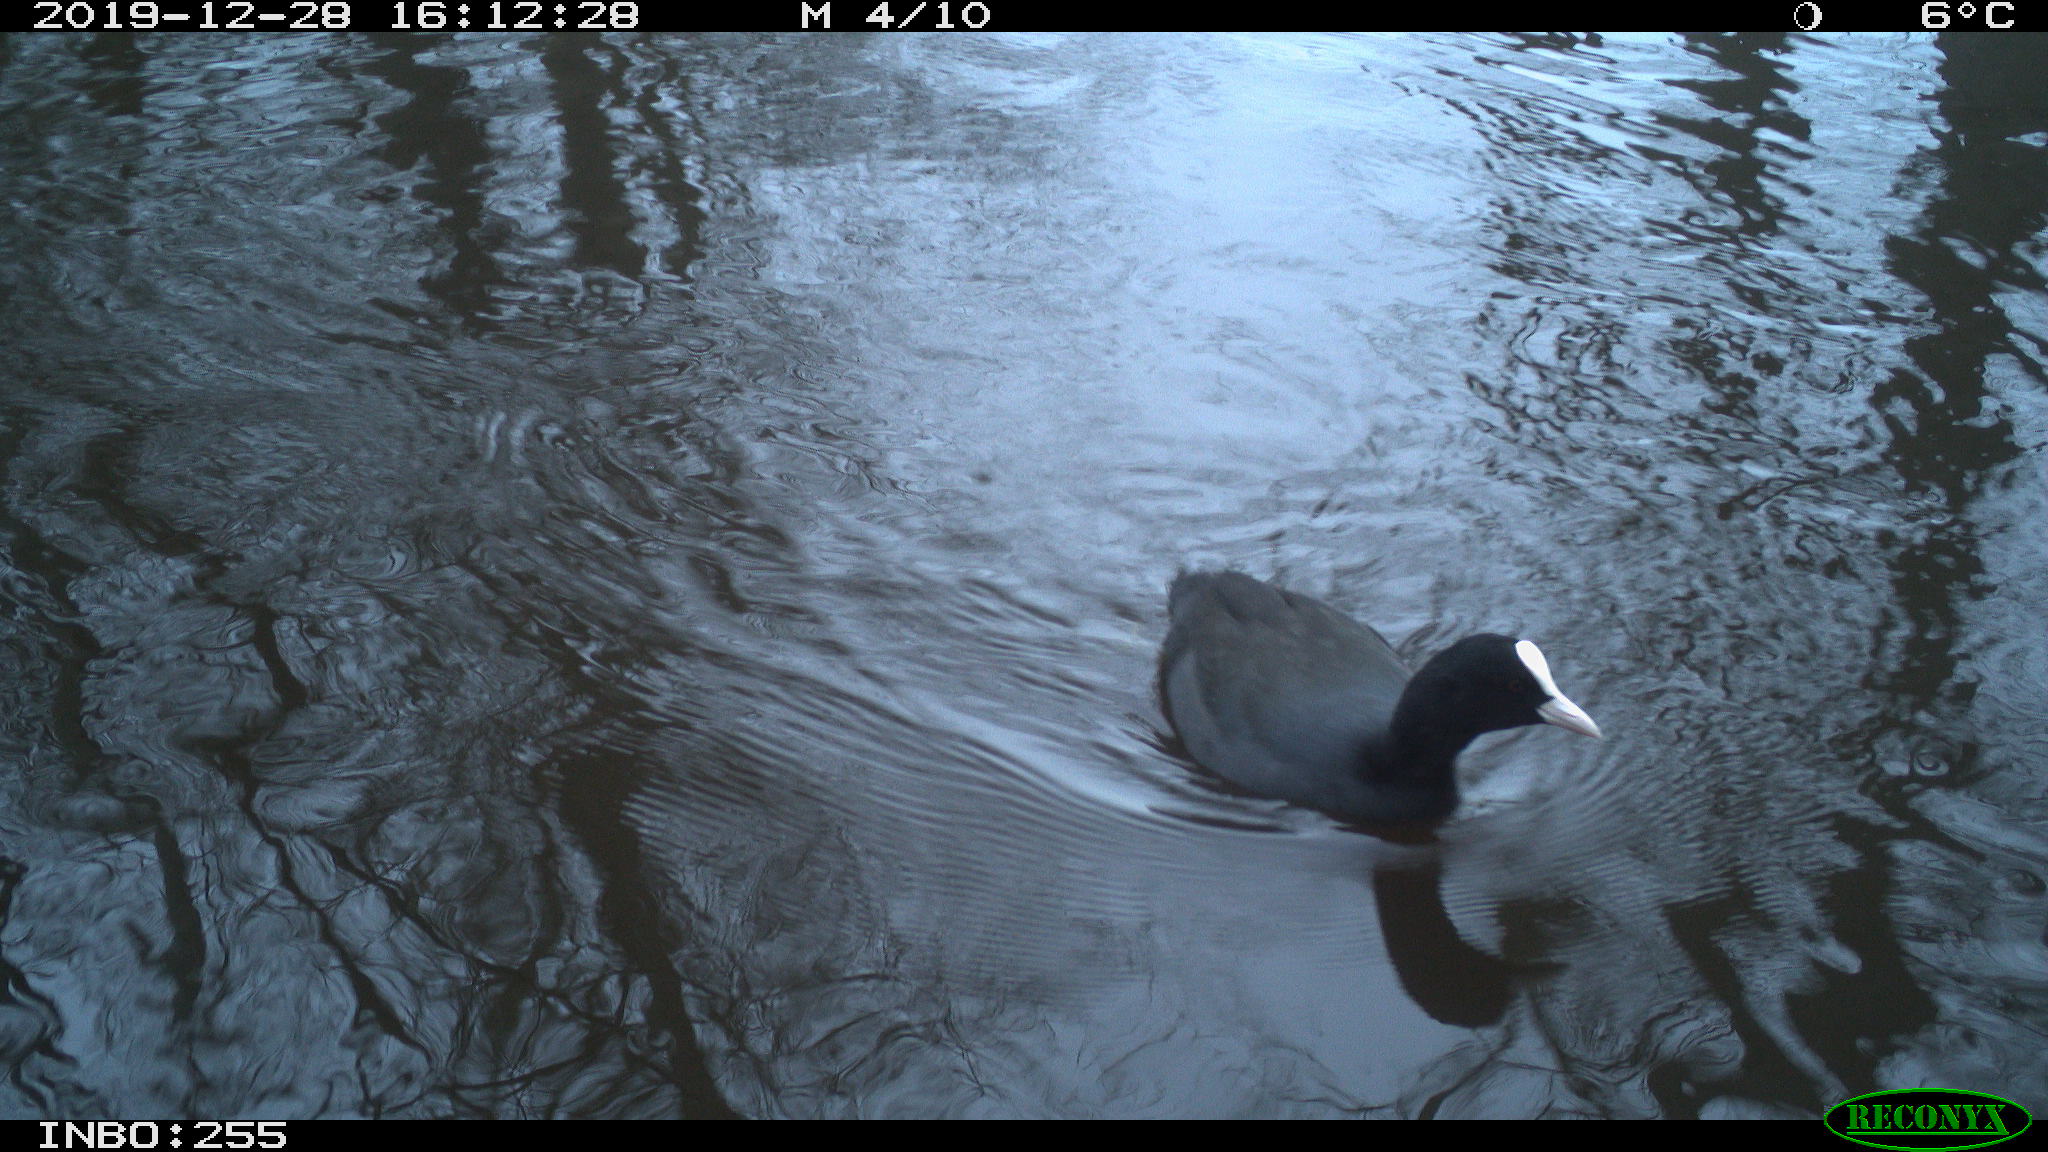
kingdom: Animalia
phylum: Chordata
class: Aves
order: Gruiformes
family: Rallidae
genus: Fulica
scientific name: Fulica atra
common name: Eurasian coot
